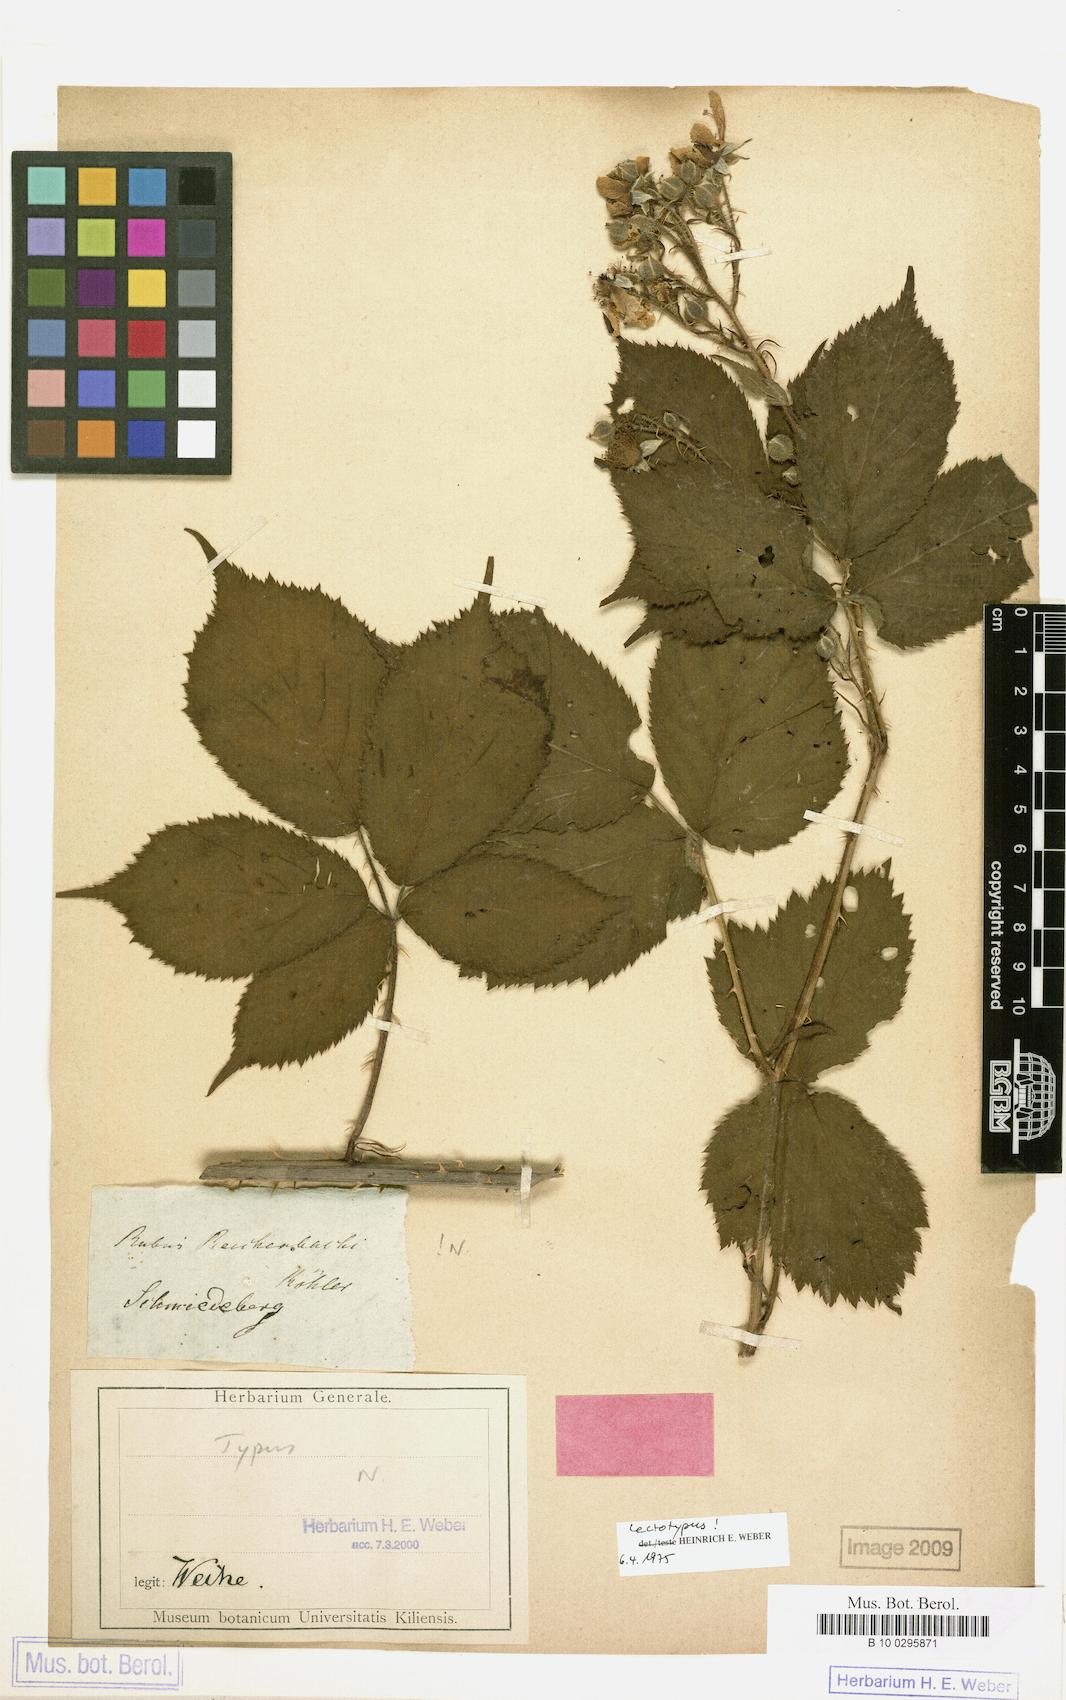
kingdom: Plantae
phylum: Tracheophyta
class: Magnoliopsida
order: Rosales
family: Rosaceae
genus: Rubus
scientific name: Rubus reichenbachii
